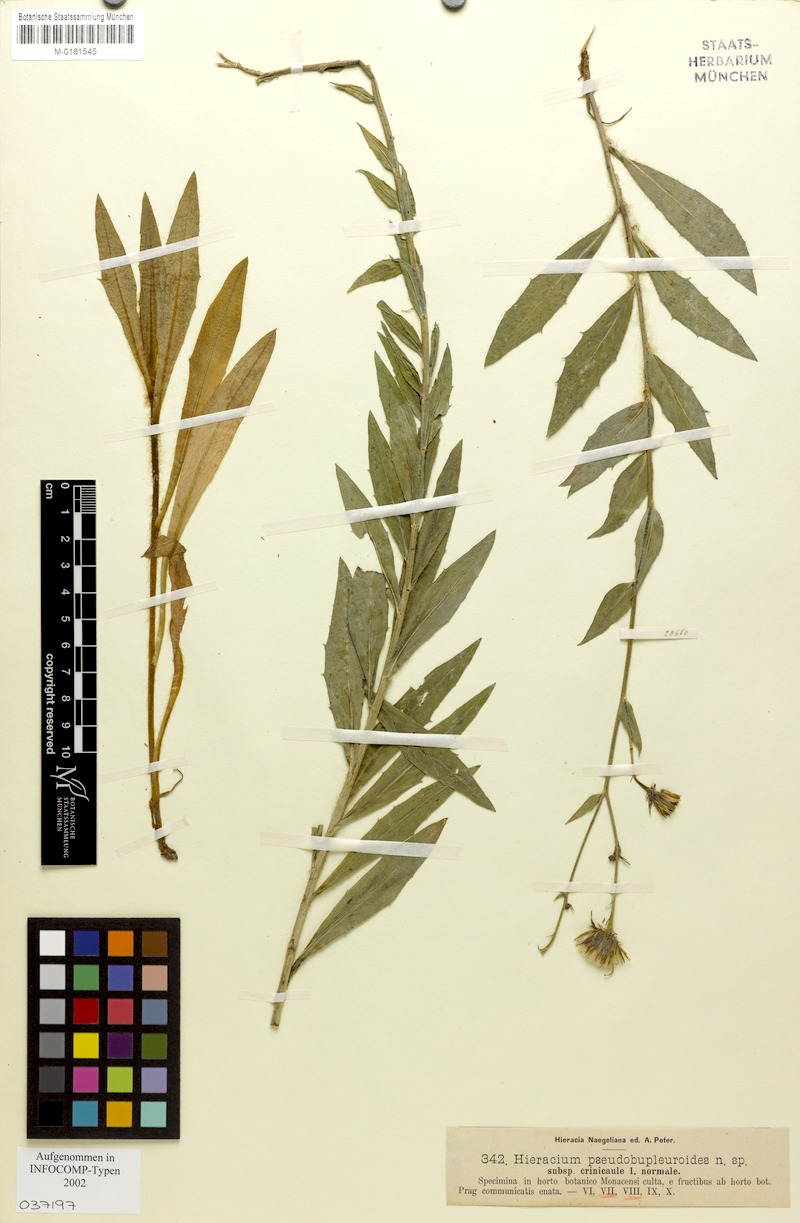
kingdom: Plantae
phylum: Tracheophyta
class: Magnoliopsida
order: Asterales
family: Asteraceae
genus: Hieracium
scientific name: Hieracium vindobonense
